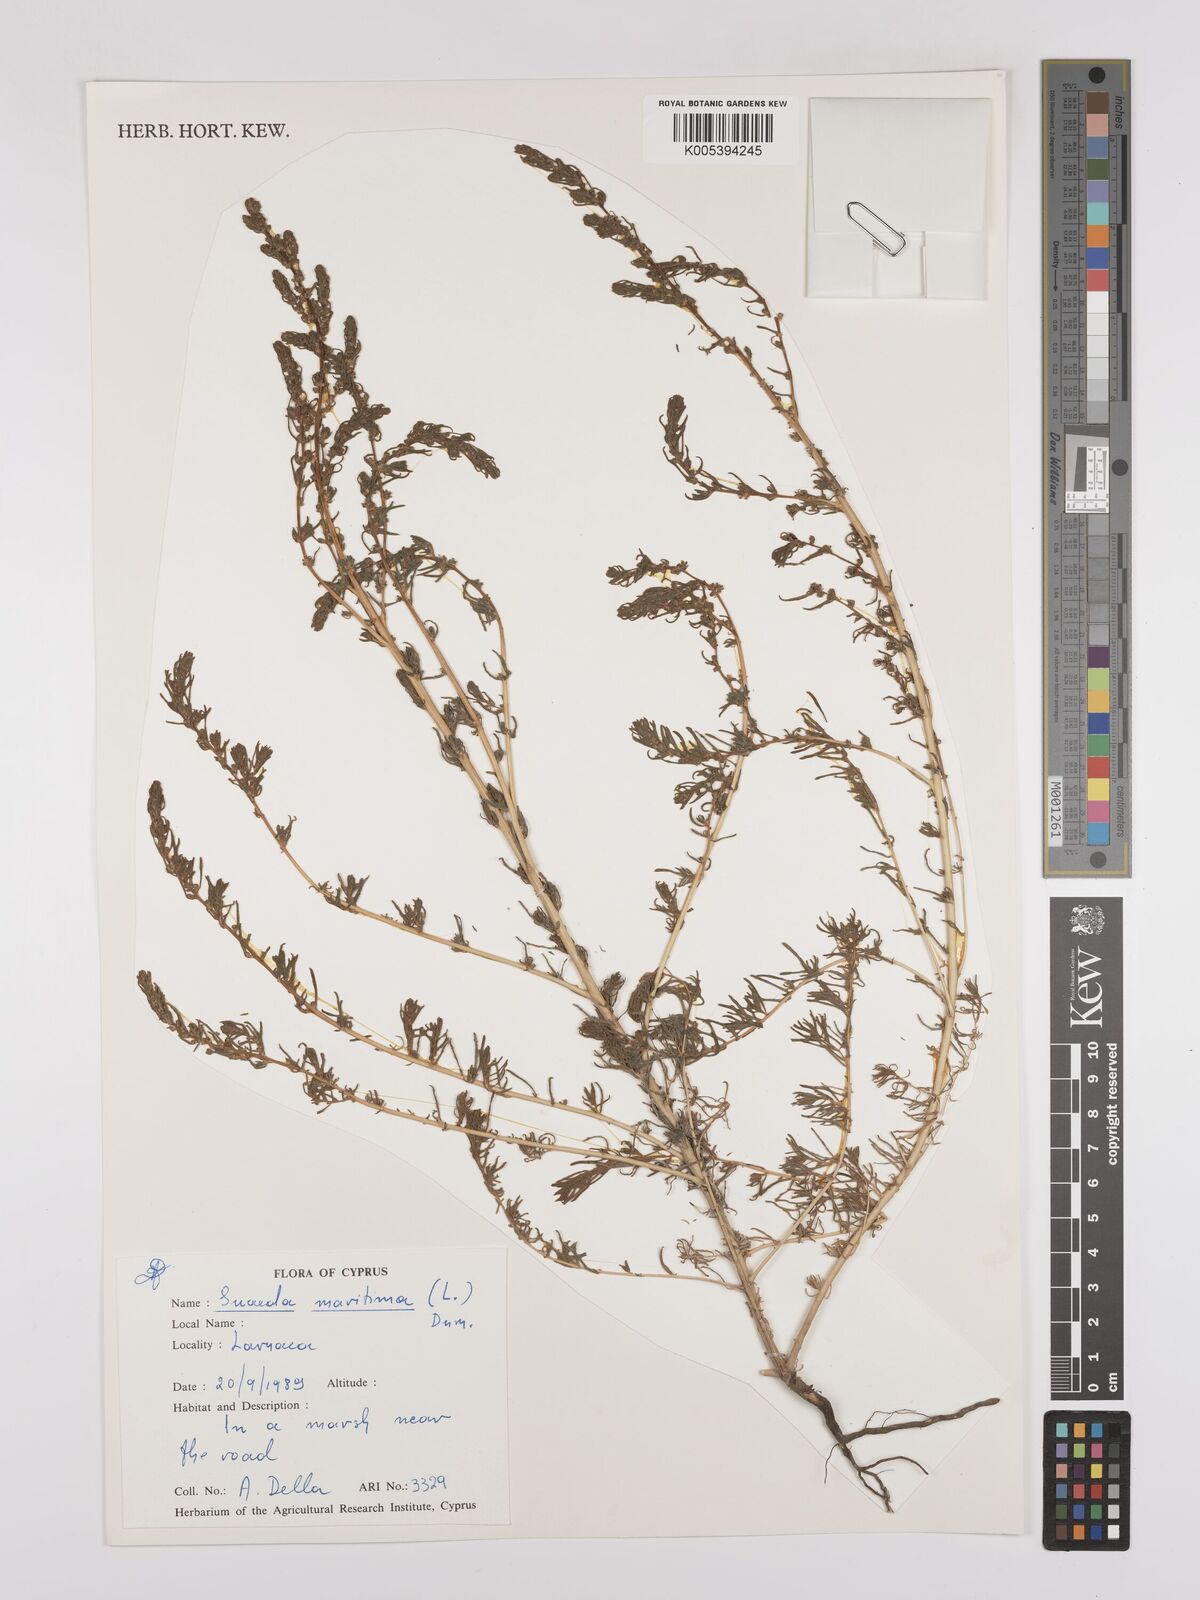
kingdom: Plantae
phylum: Tracheophyta
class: Magnoliopsida
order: Caryophyllales
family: Amaranthaceae
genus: Suaeda
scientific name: Suaeda
